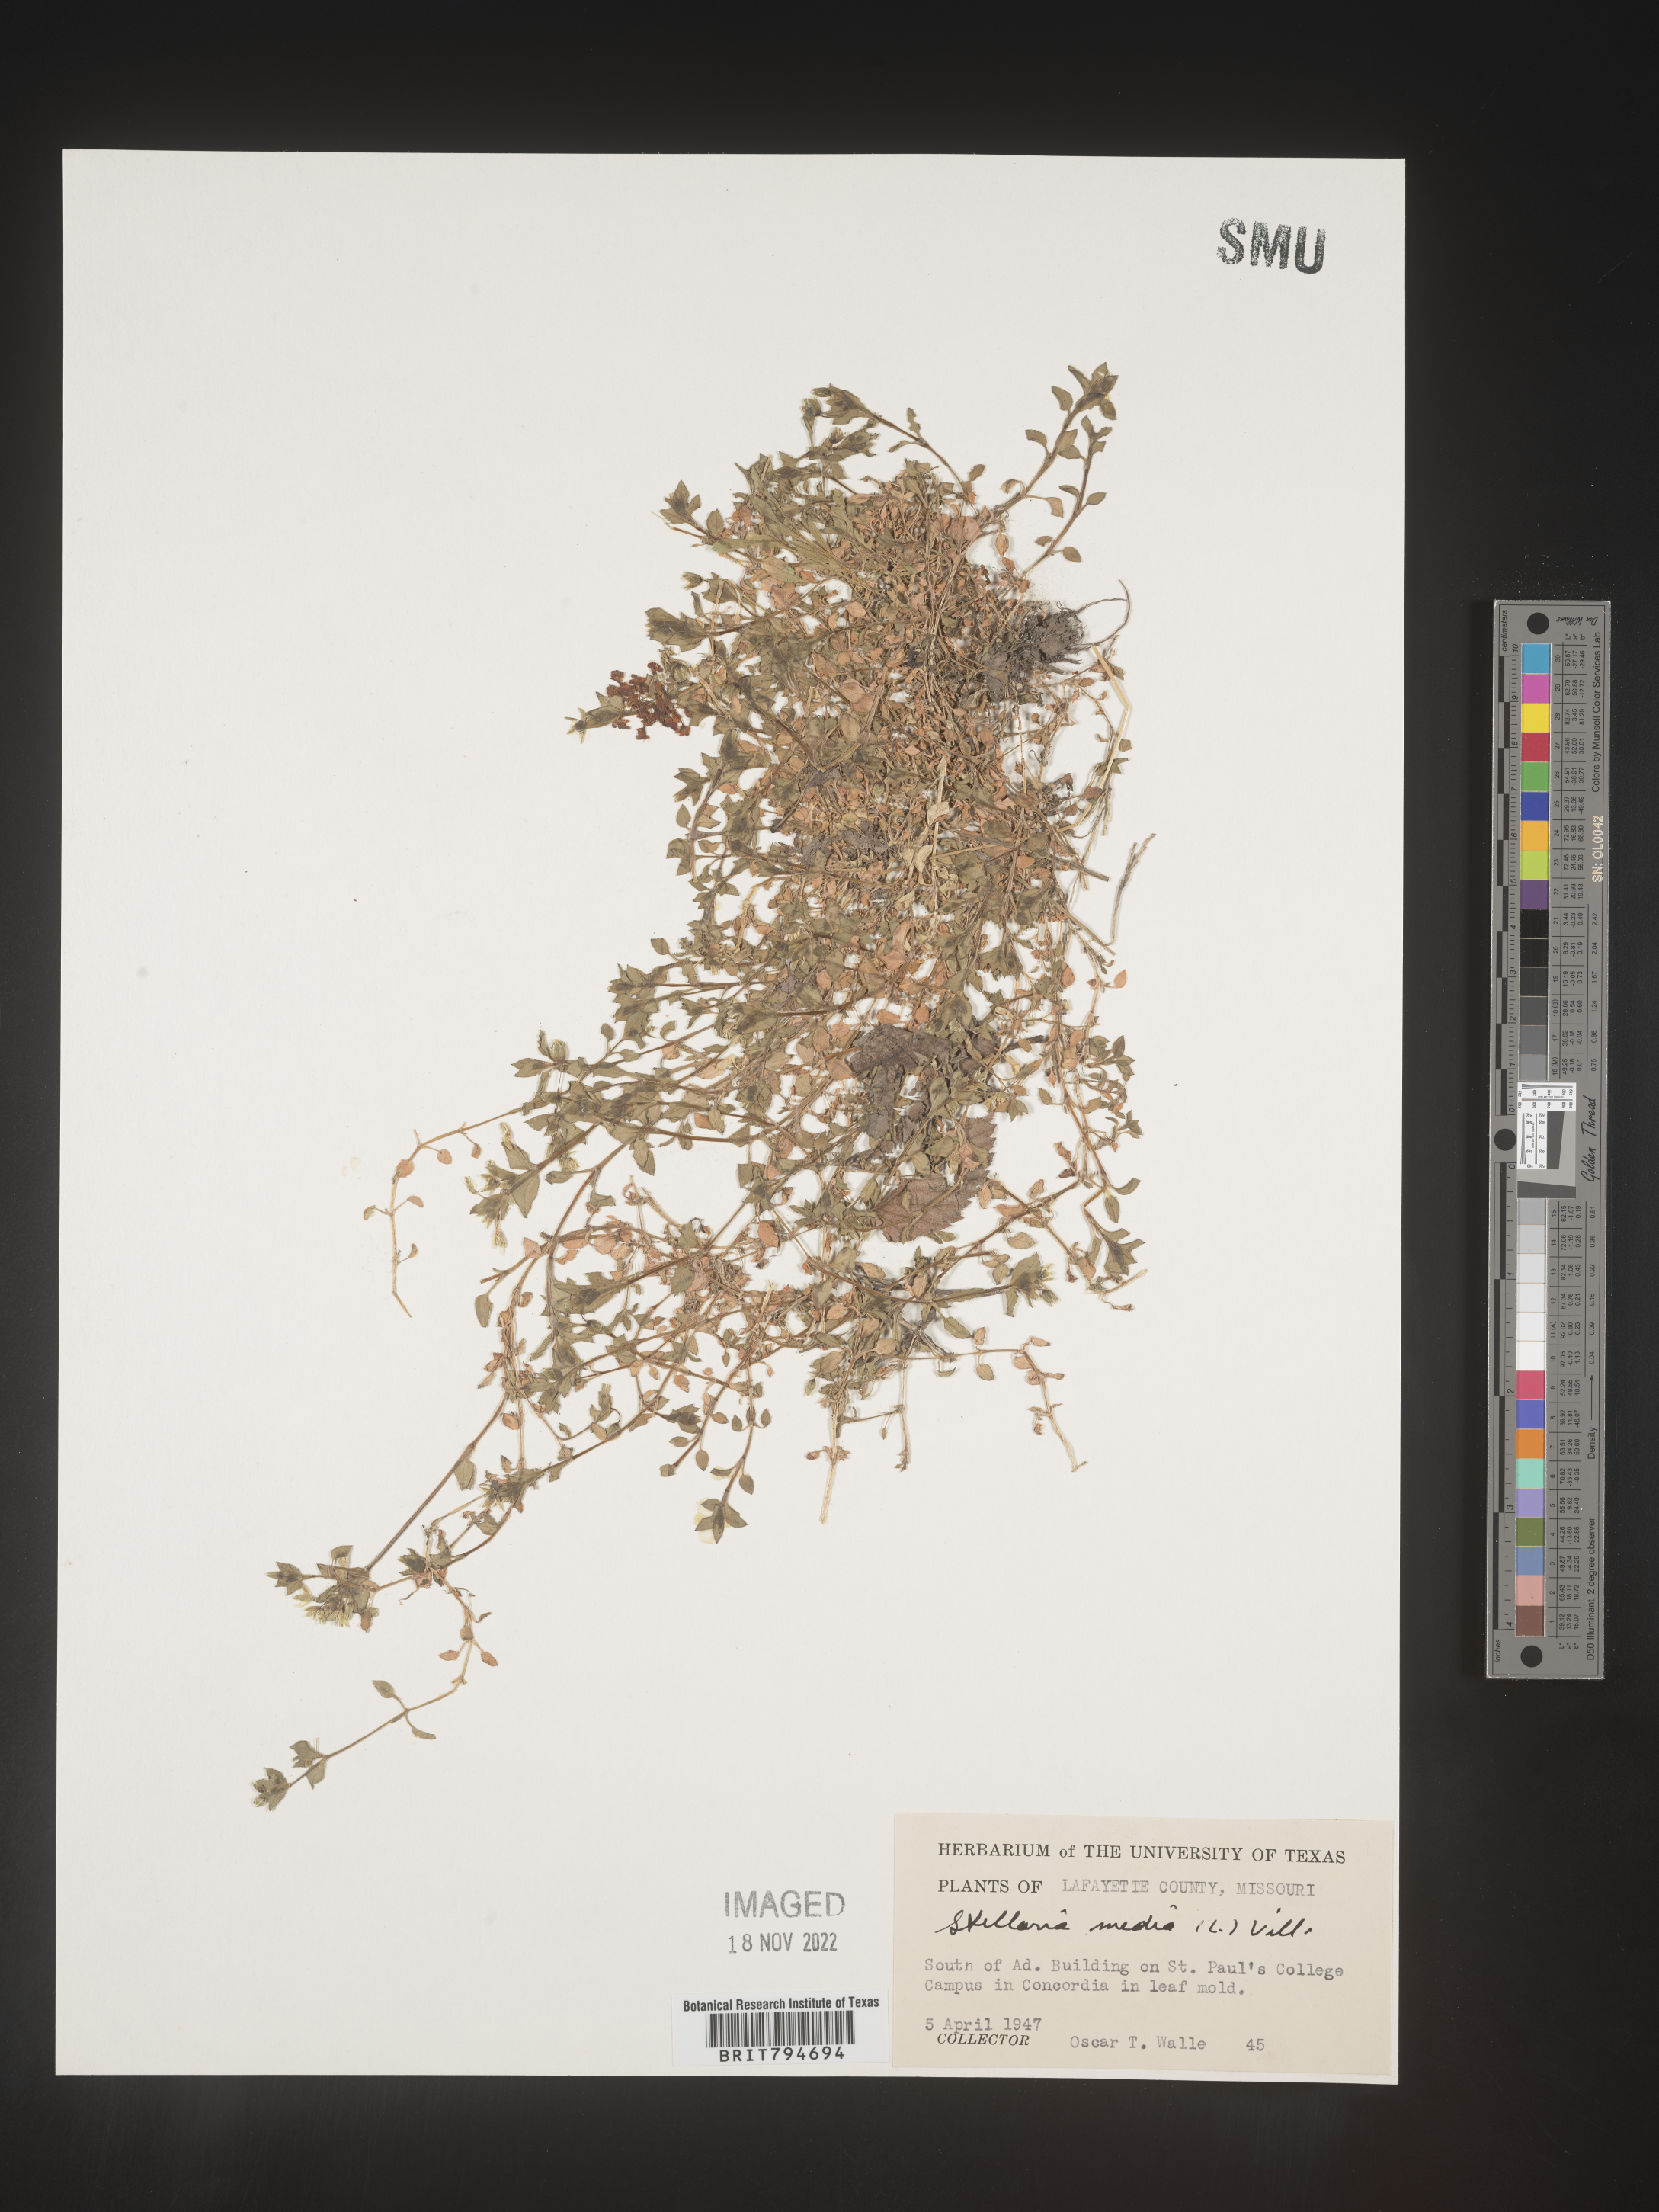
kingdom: Plantae
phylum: Tracheophyta
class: Magnoliopsida
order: Caryophyllales
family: Caryophyllaceae
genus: Stellaria
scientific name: Stellaria media
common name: Common chickweed
